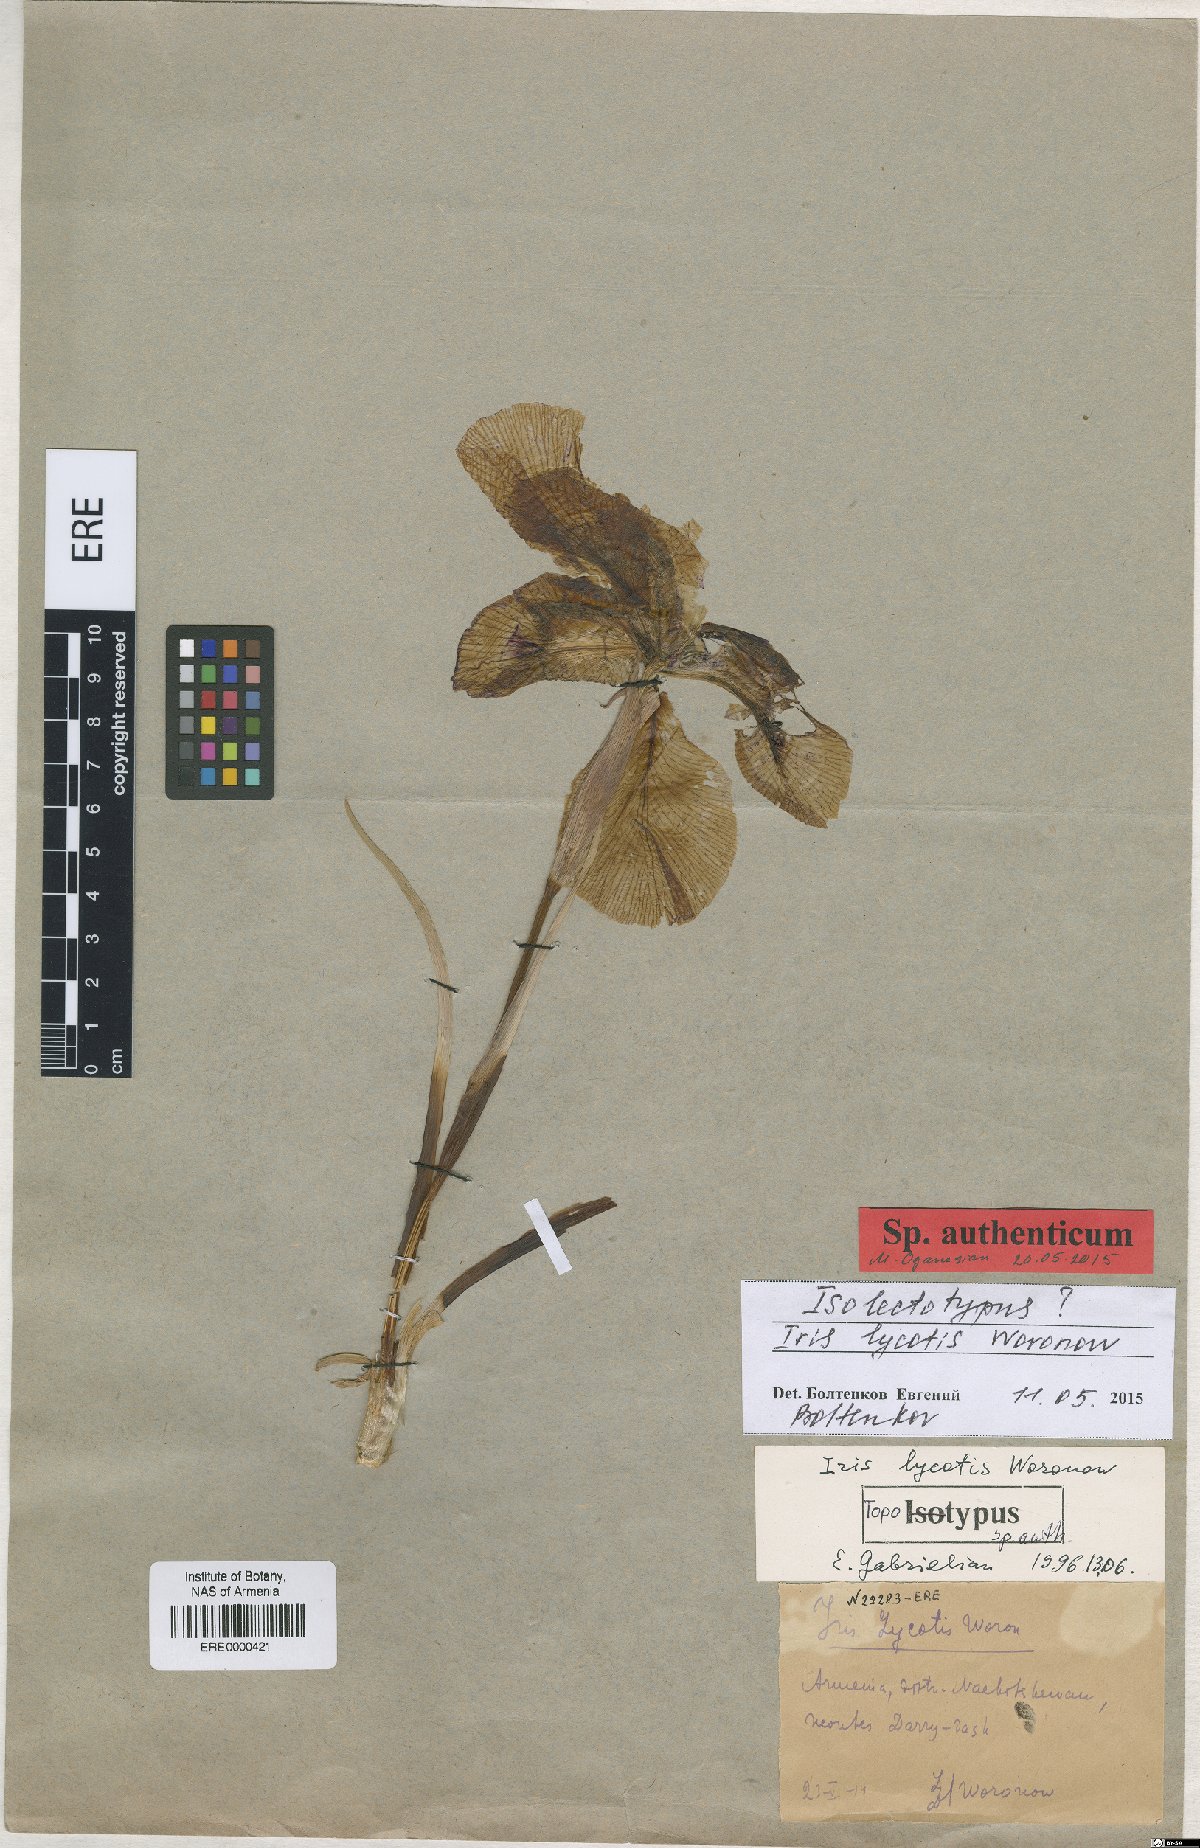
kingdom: Plantae
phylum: Tracheophyta
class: Liliopsida
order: Asparagales
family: Iridaceae
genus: Iris
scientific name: Iris lycotis
